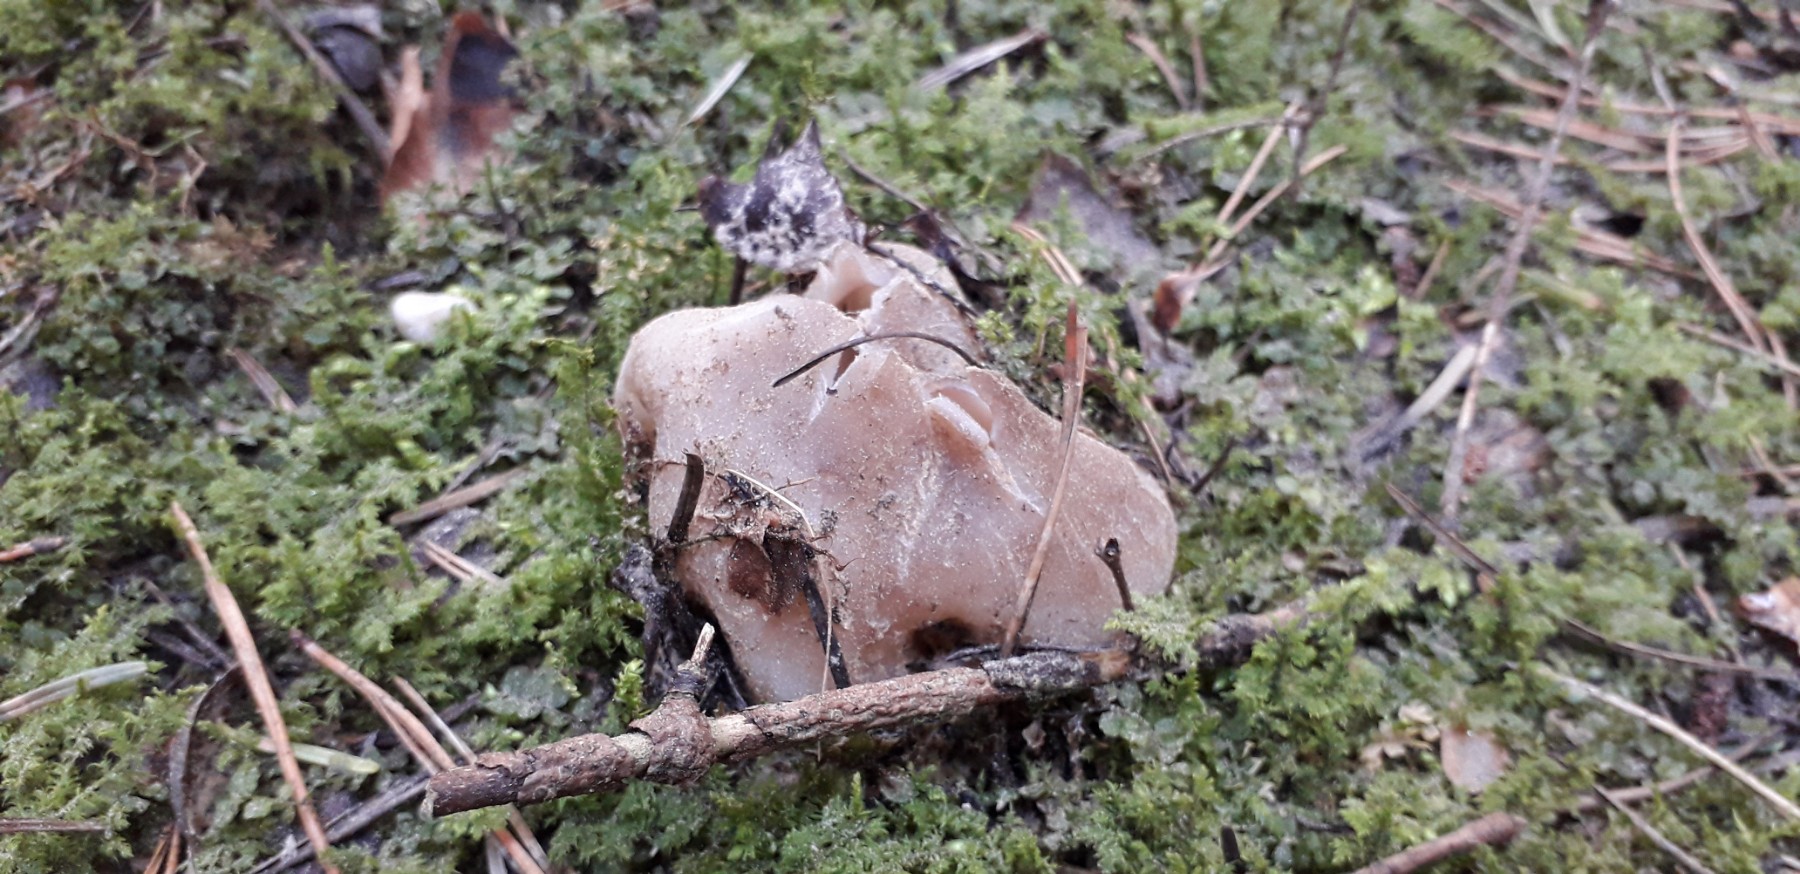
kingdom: Fungi
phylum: Ascomycota
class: Pezizomycetes
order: Pezizales
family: Pezizaceae
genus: Sarcosphaera
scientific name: Sarcosphaera coronaria
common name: stjernebæger
